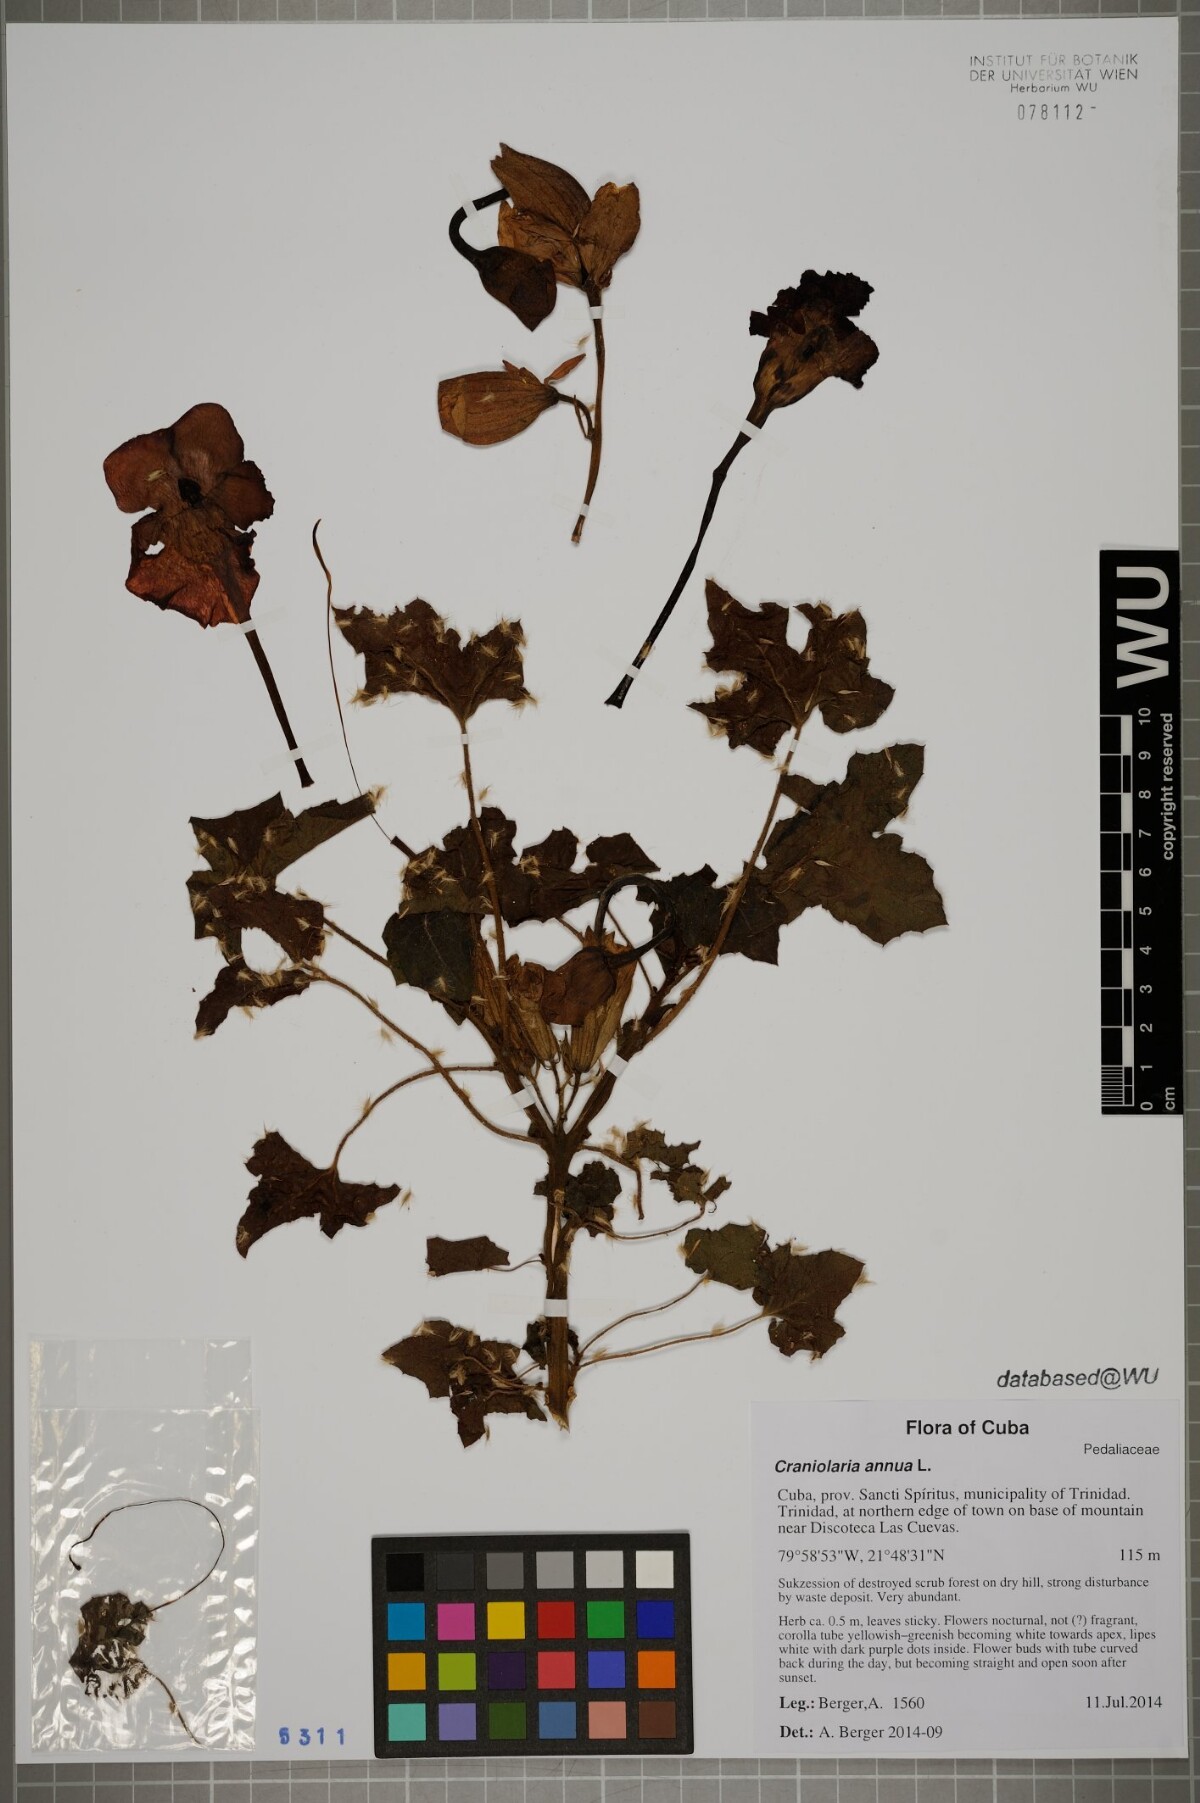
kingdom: Plantae
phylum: Tracheophyta
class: Magnoliopsida
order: Lamiales
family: Martyniaceae
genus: Craniolaria
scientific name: Craniolaria annua
